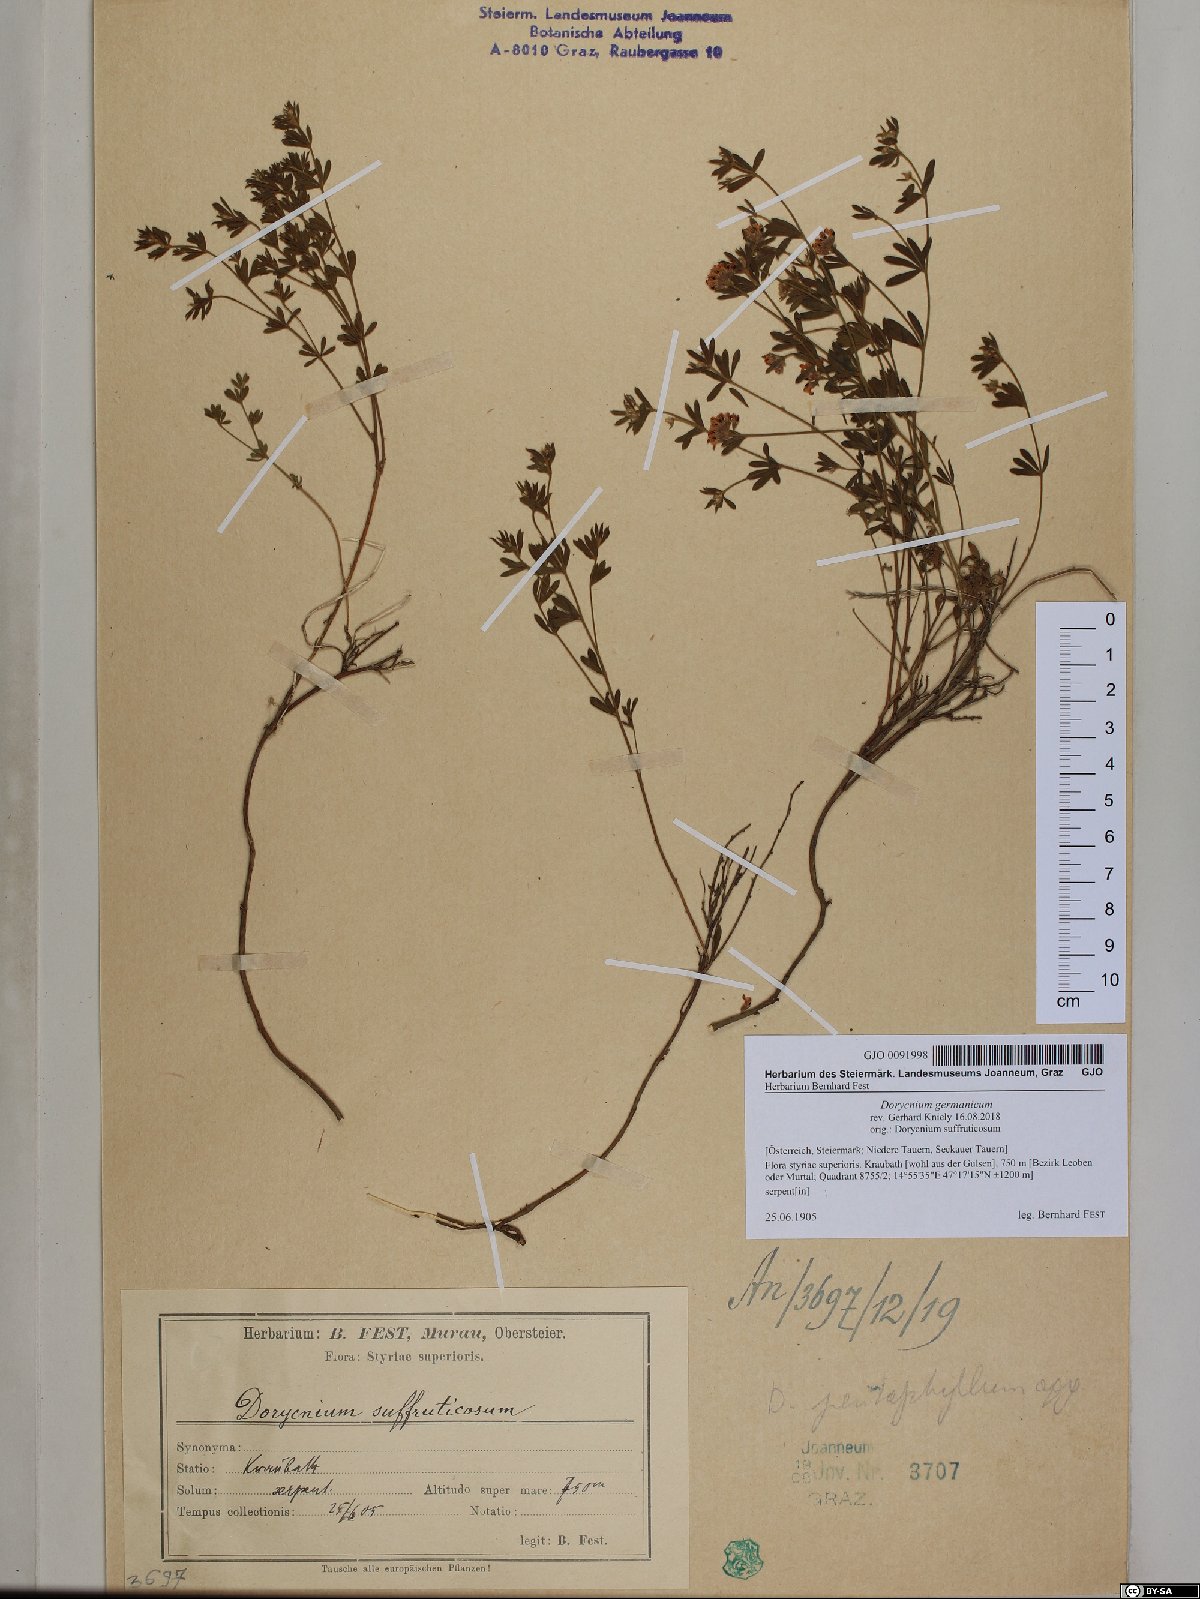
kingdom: Plantae
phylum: Tracheophyta
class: Magnoliopsida
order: Fabales
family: Fabaceae
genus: Lotus
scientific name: Lotus germanicus
